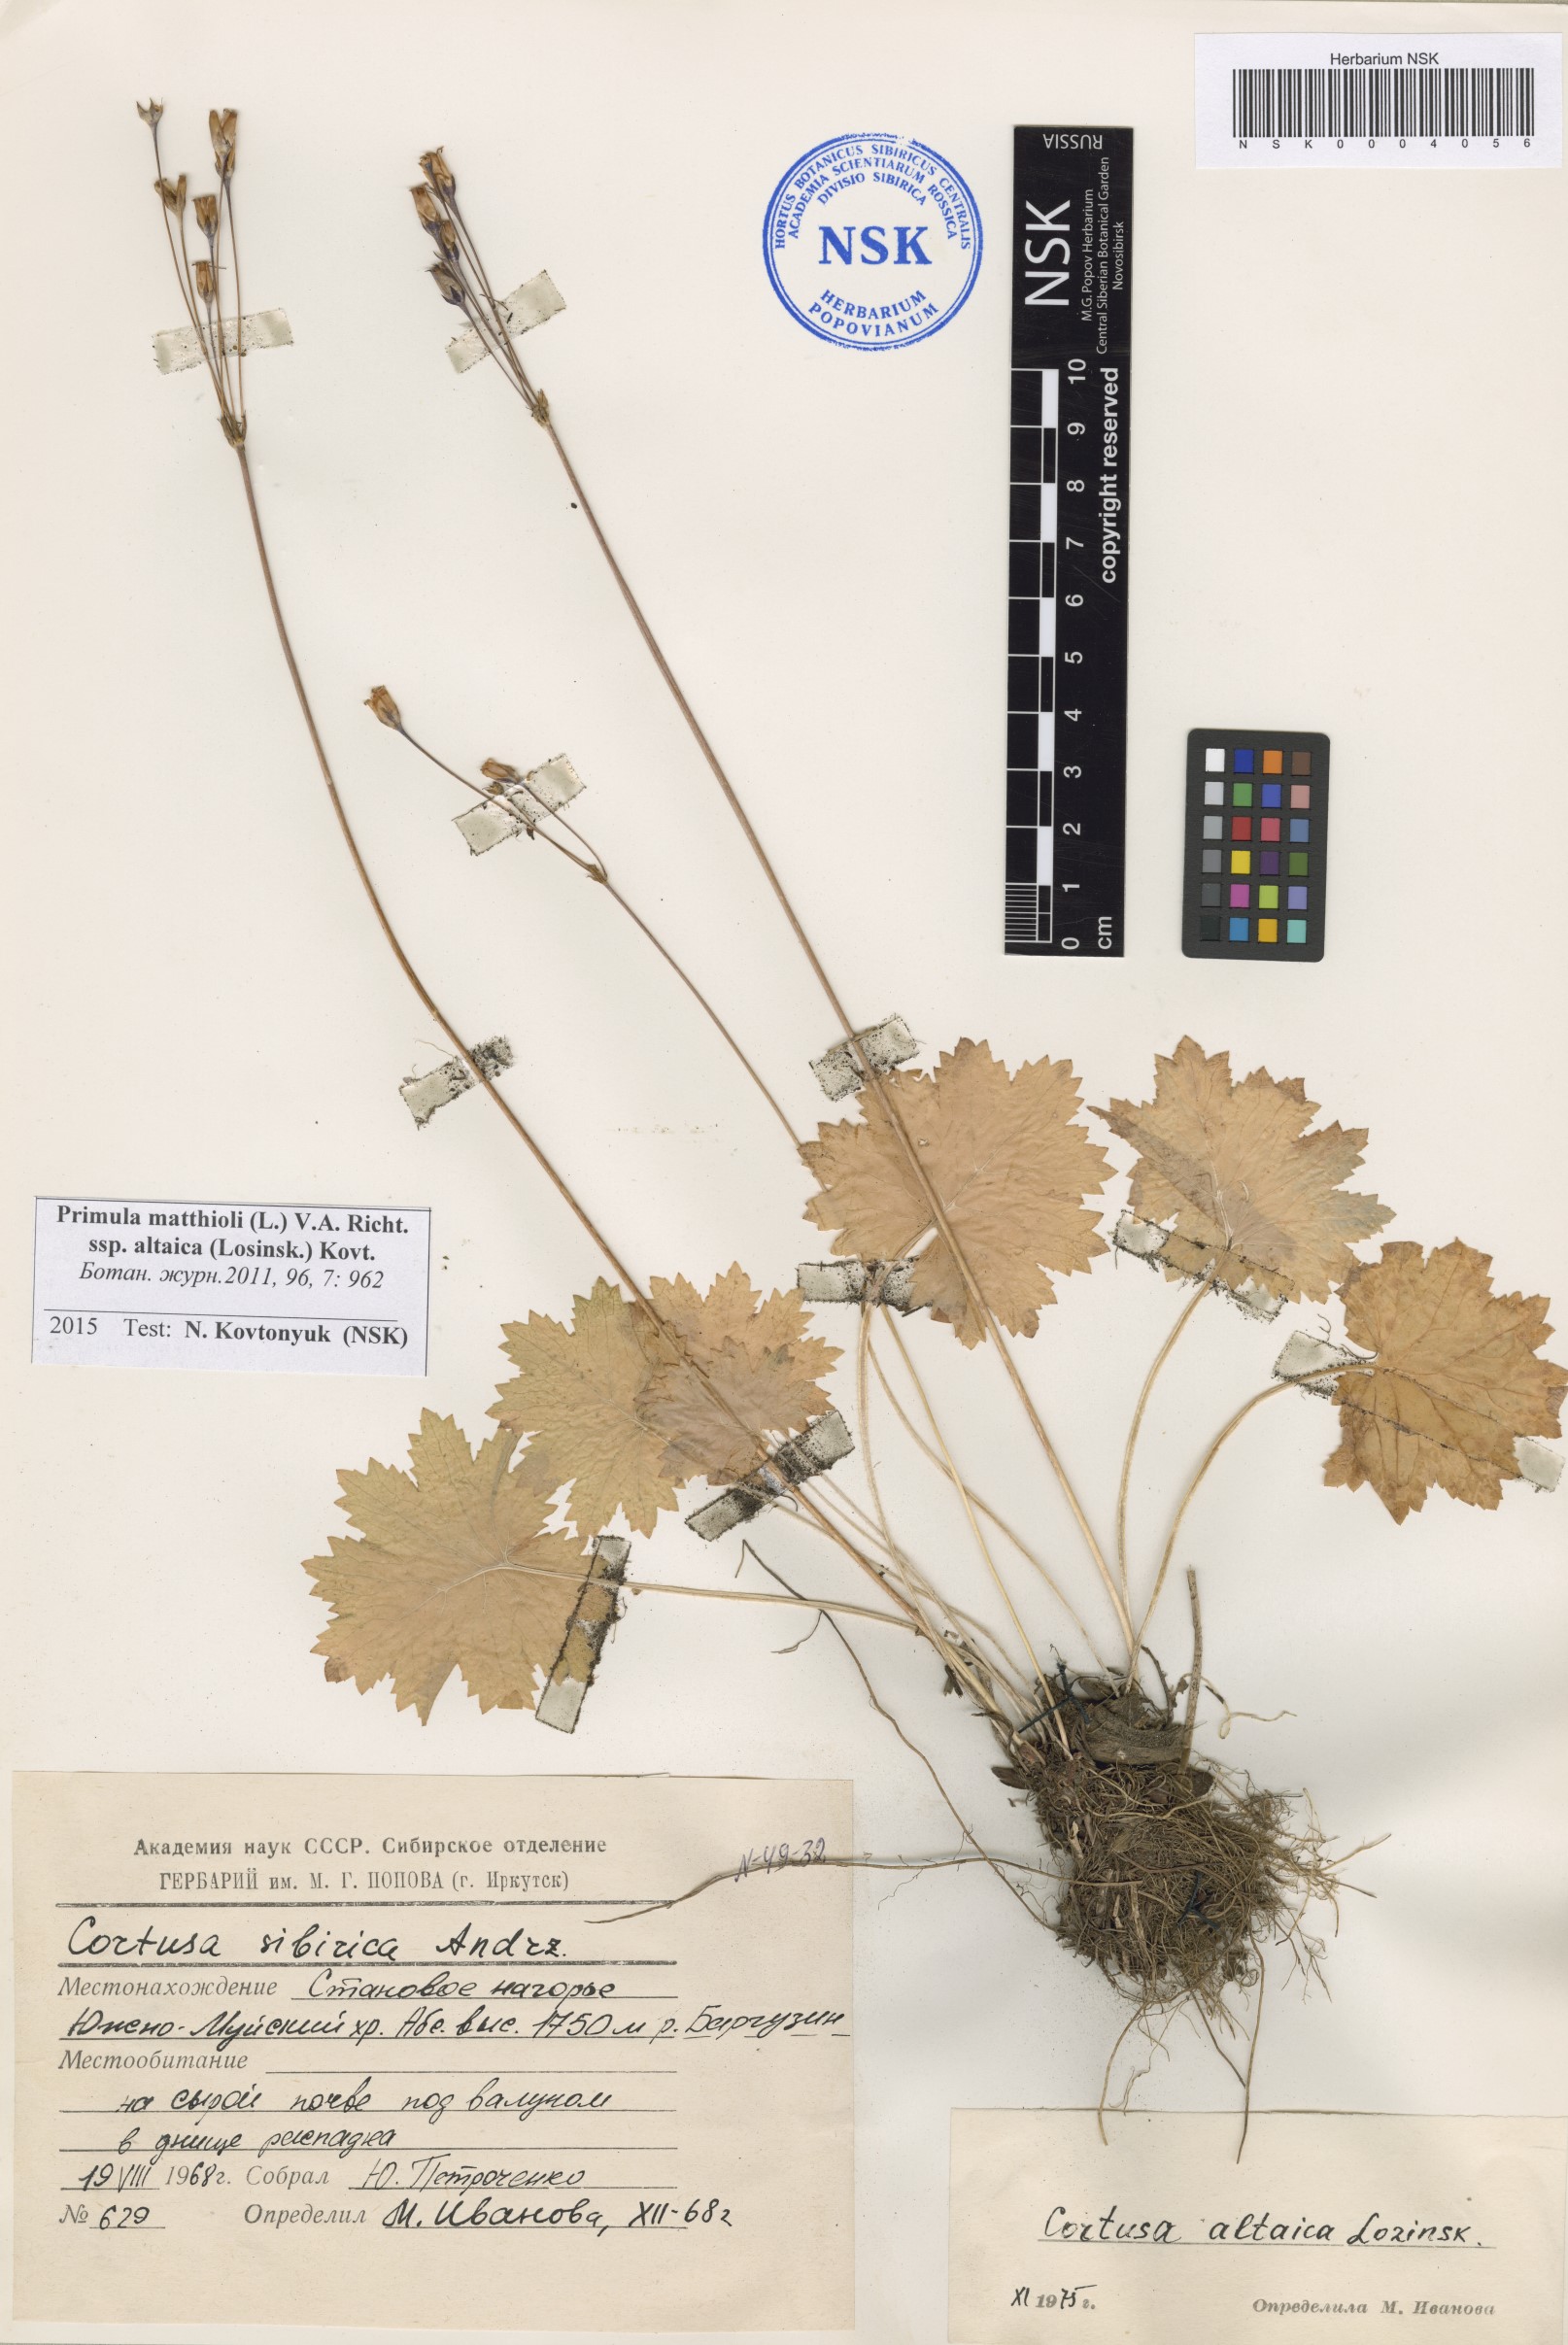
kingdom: Plantae
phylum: Tracheophyta
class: Magnoliopsida
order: Ericales
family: Primulaceae
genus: Primula
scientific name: Primula matthioli
